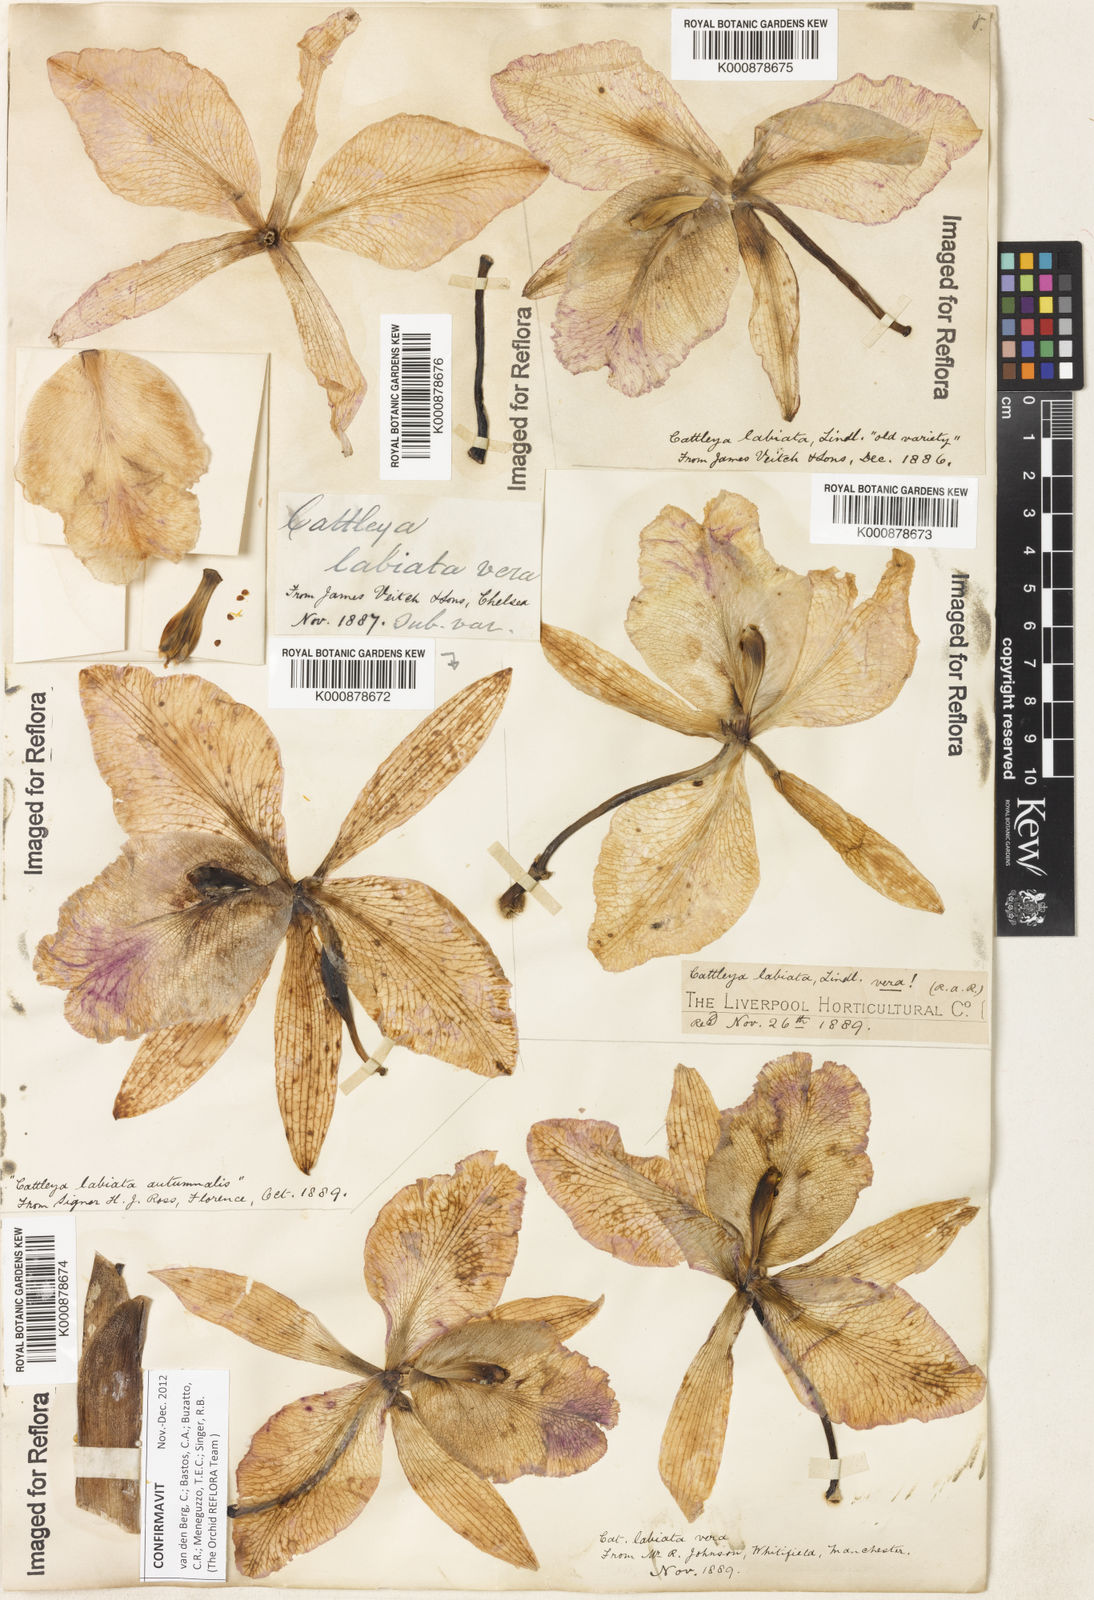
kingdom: Plantae
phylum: Tracheophyta
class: Liliopsida
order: Asparagales
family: Orchidaceae
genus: Cattleya
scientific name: Cattleya labiata
